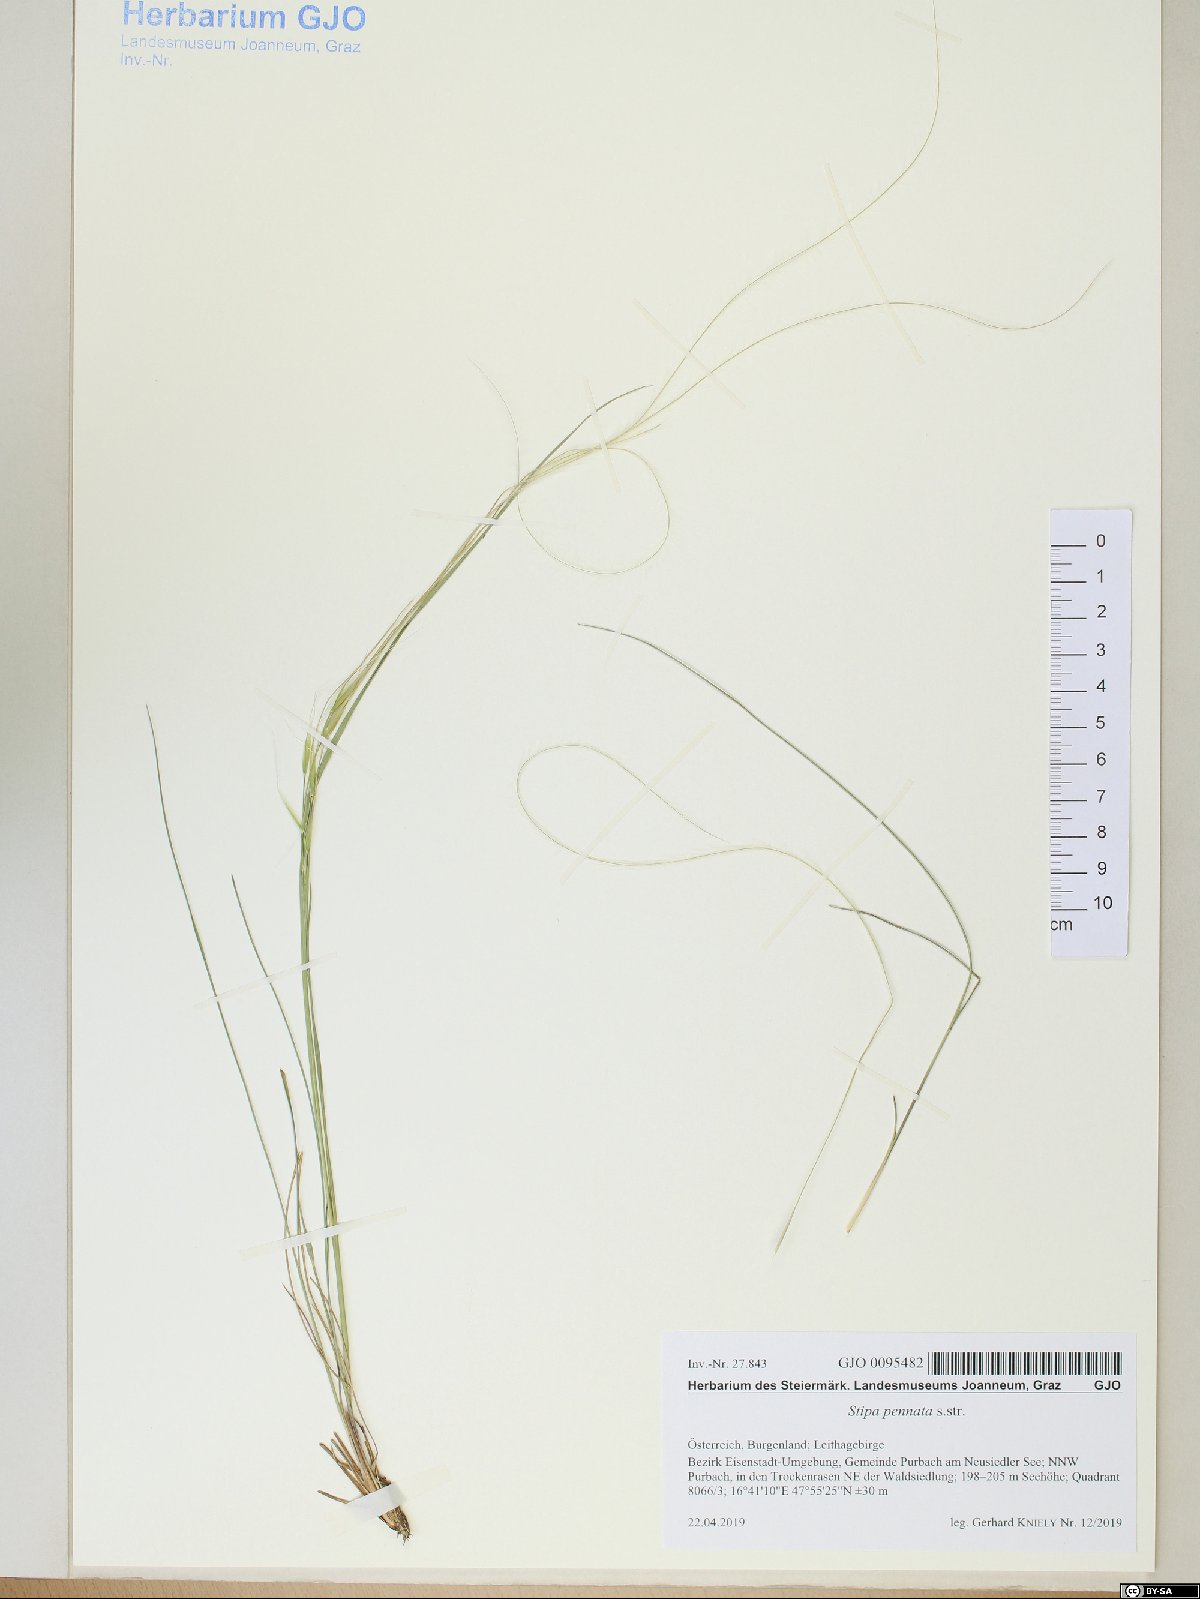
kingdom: Plantae
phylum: Tracheophyta
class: Liliopsida
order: Poales
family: Poaceae
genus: Stipa
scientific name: Stipa pennata
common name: European feather grass
